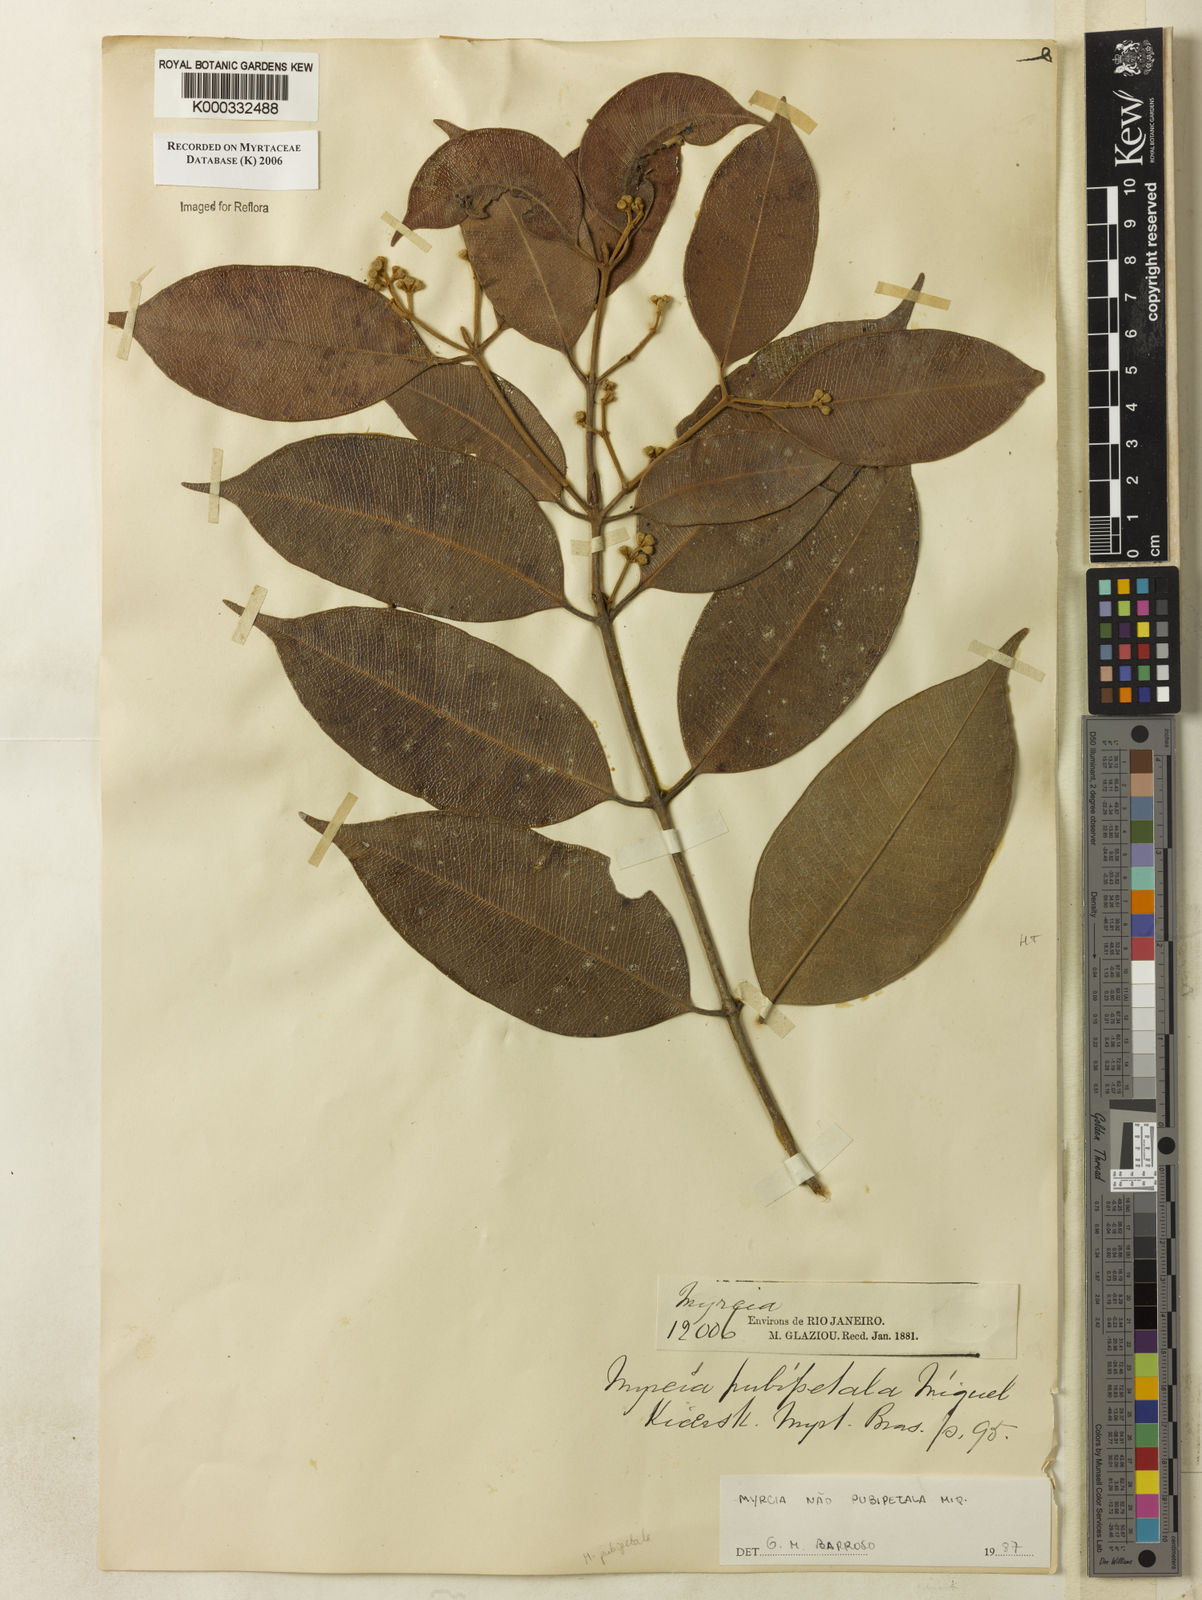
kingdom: Plantae
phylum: Tracheophyta
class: Magnoliopsida
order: Myrtales
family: Myrtaceae
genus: Myrcia
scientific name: Myrcia pubipetala
